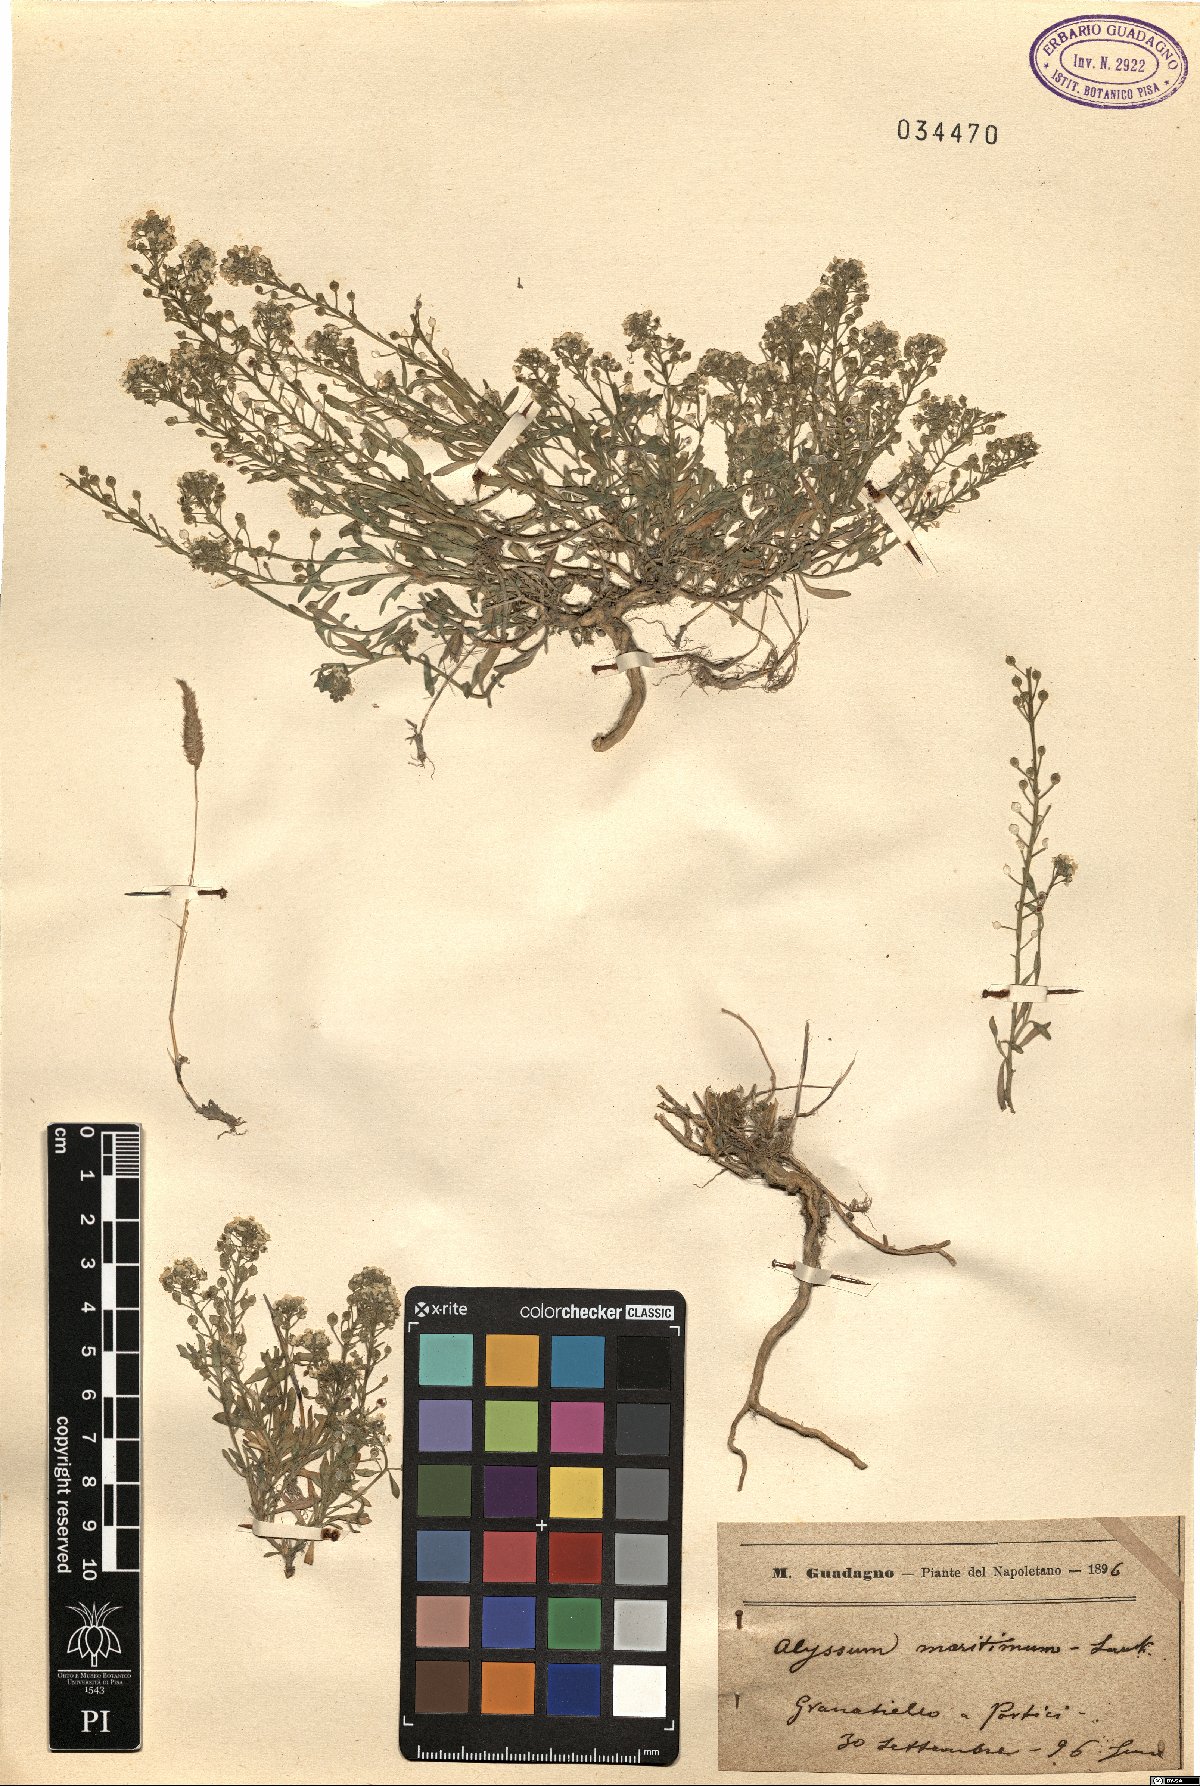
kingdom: Plantae
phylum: Tracheophyta
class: Magnoliopsida
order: Brassicales
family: Brassicaceae
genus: Lobularia
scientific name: Lobularia maritima
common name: Sweet alison
